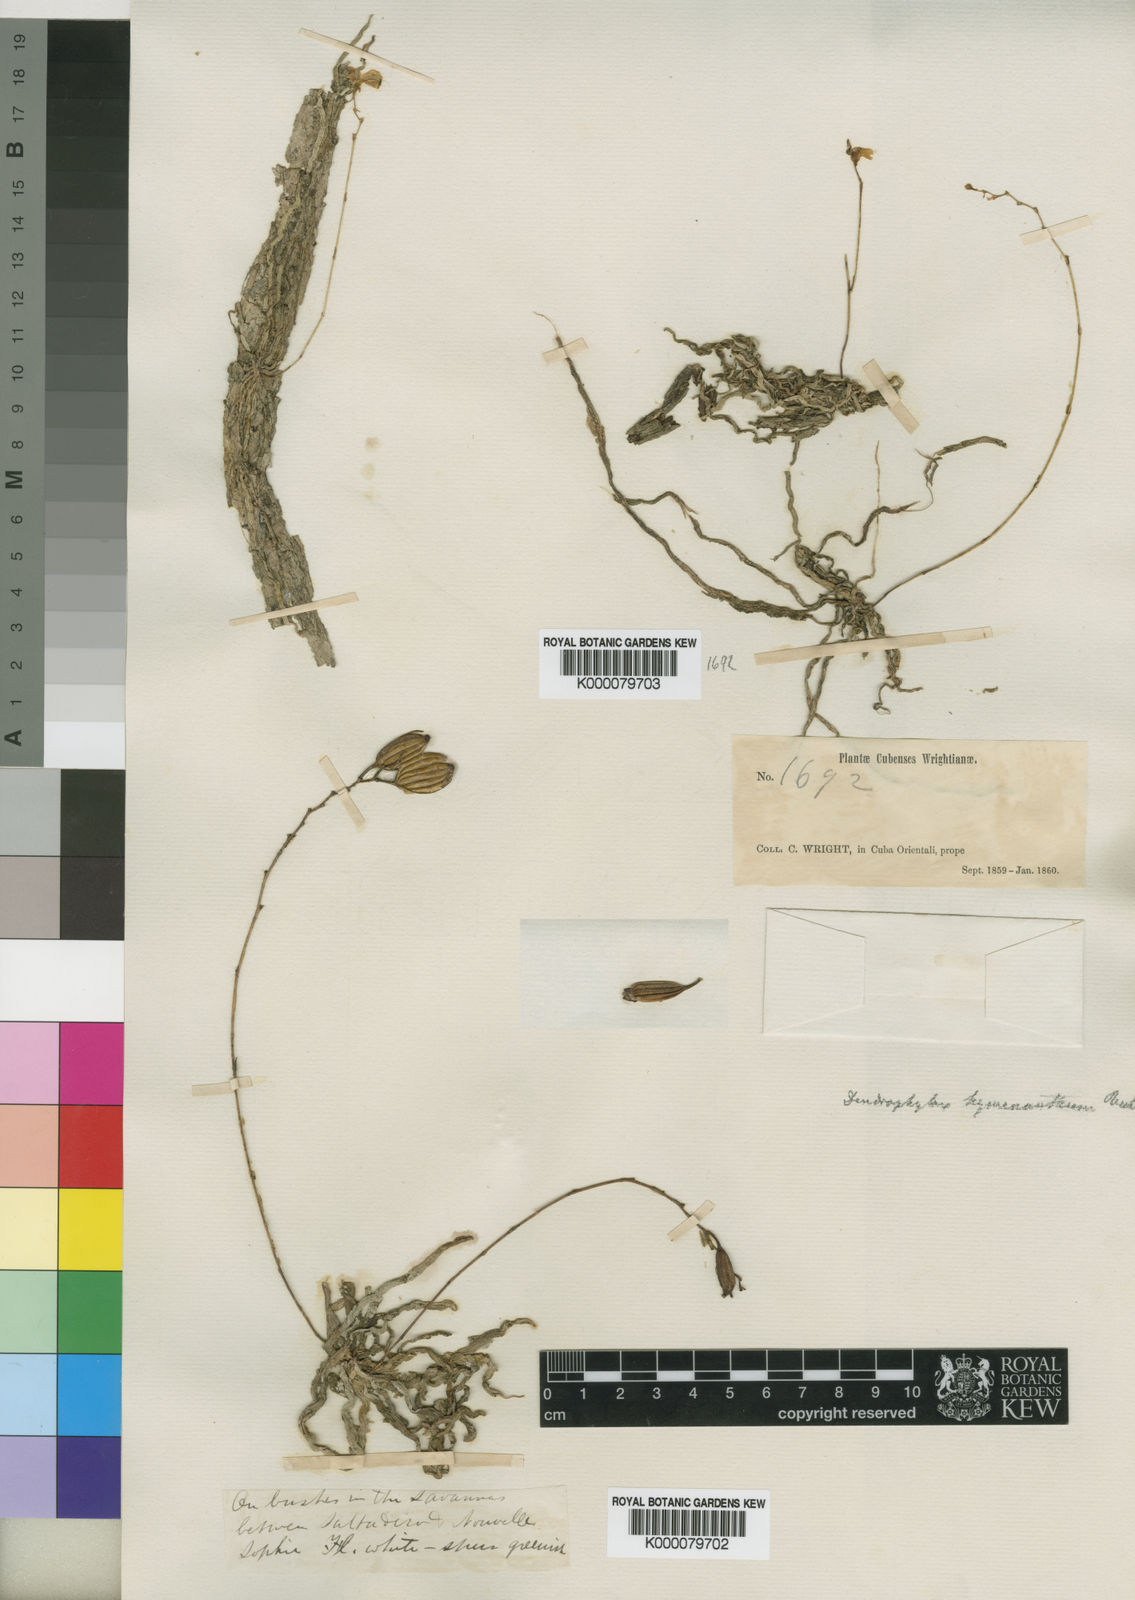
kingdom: Plantae
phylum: Tracheophyta
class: Liliopsida
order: Asparagales
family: Orchidaceae
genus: Dendrophylax
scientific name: Dendrophylax varius
